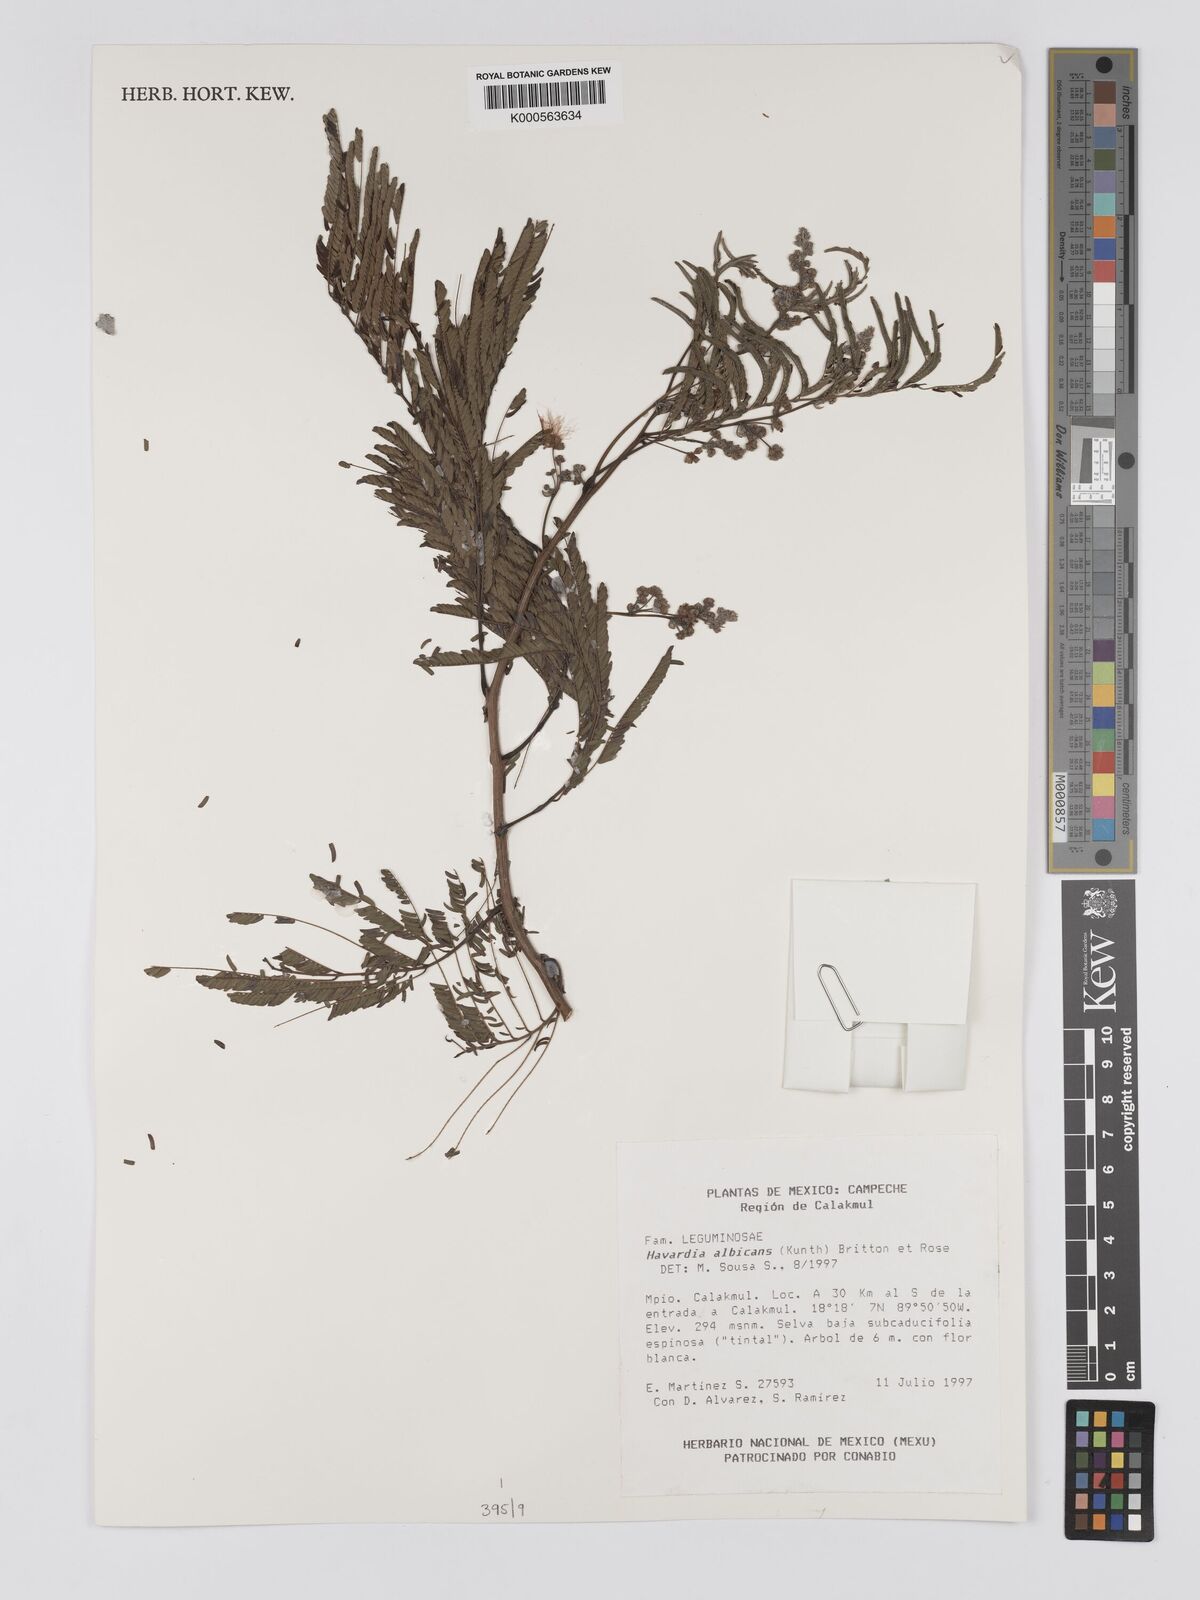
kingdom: Plantae
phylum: Tracheophyta
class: Magnoliopsida
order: Fabales
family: Fabaceae
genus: Havardia
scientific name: Havardia albicans
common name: Huisache
